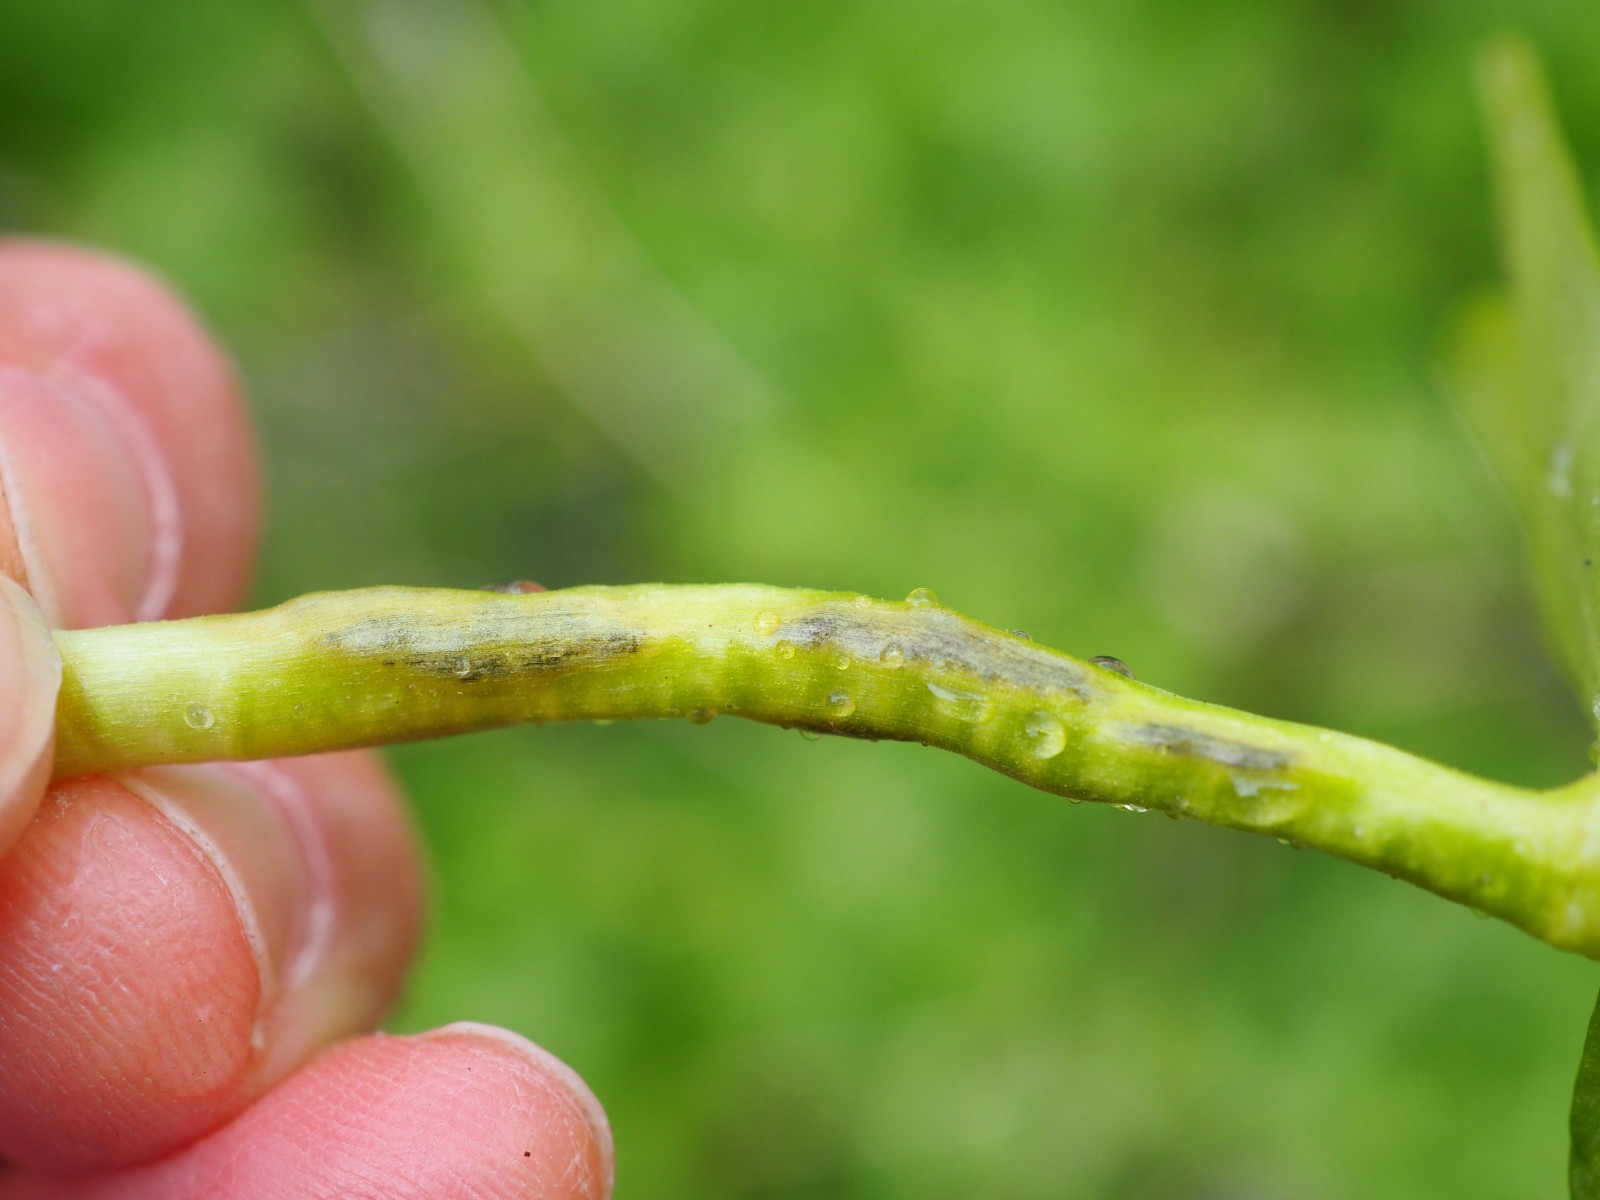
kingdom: Fungi
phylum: Basidiomycota
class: Ustilaginomycetes
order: Urocystidales
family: Urocystidaceae
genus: Urocystis
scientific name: Urocystis eranthidis
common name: erantis-brand
